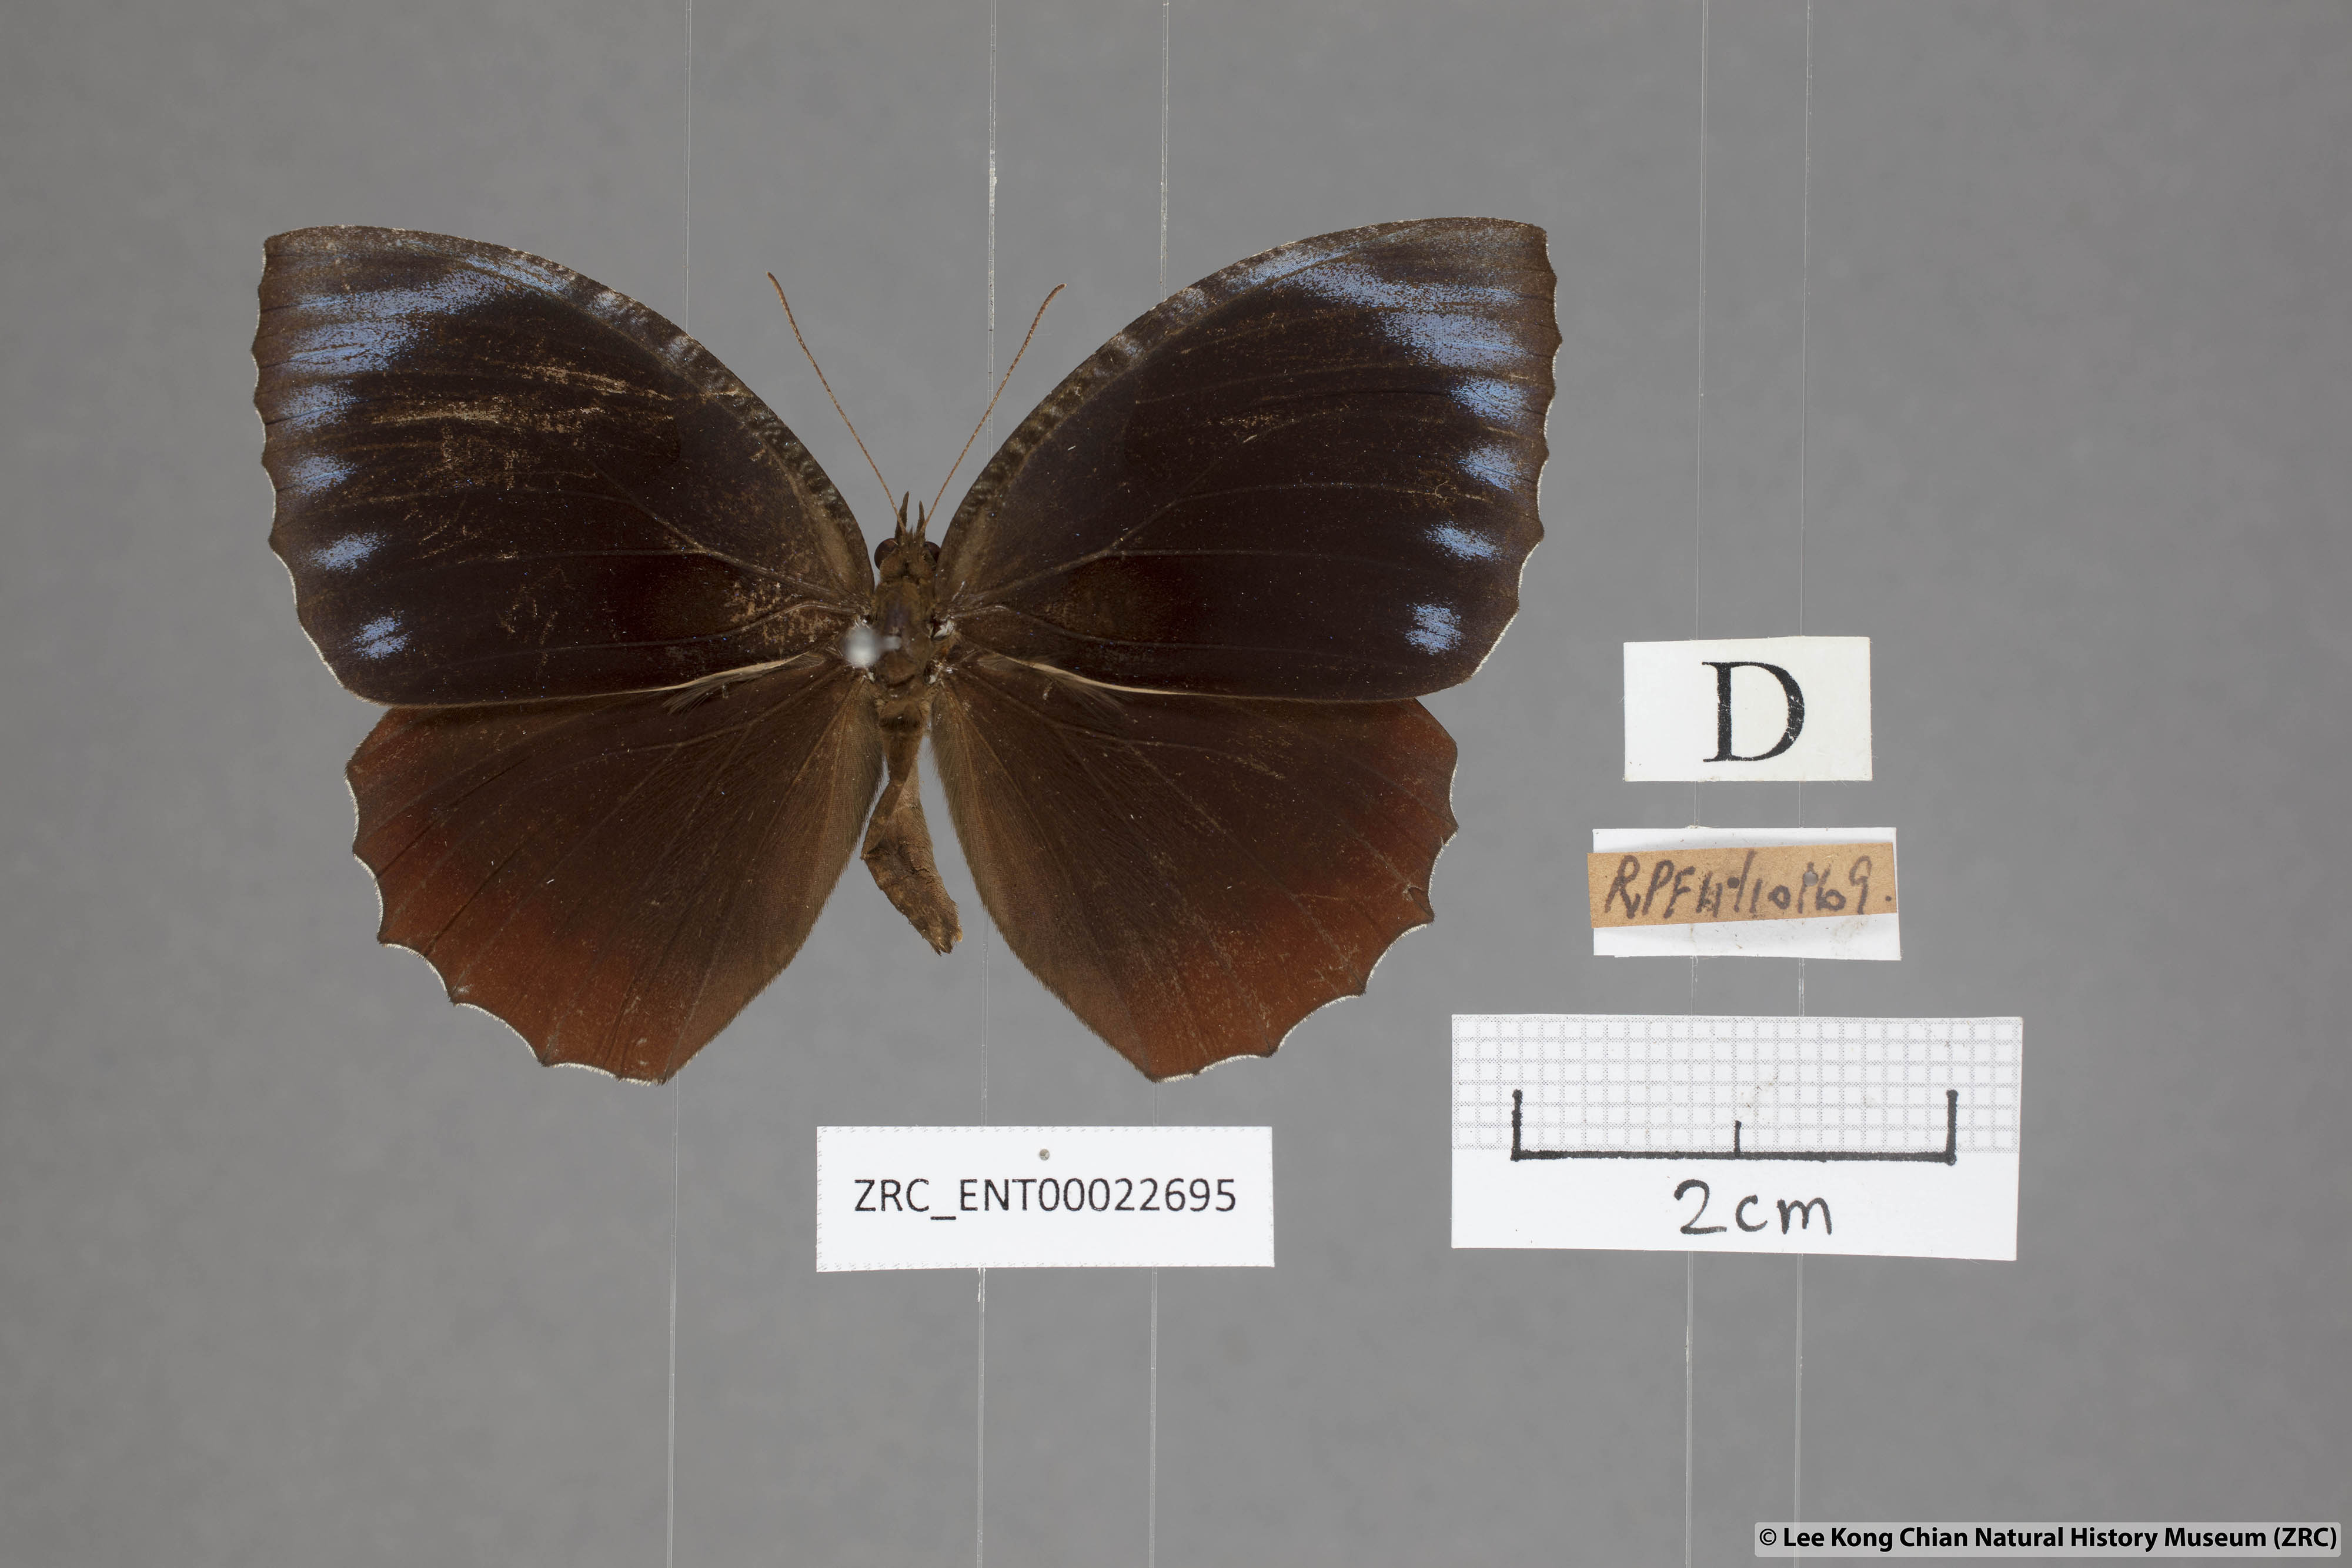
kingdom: Animalia
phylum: Arthropoda
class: Insecta
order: Lepidoptera
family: Nymphalidae
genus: Elymnias
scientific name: Elymnias hypermnestra
